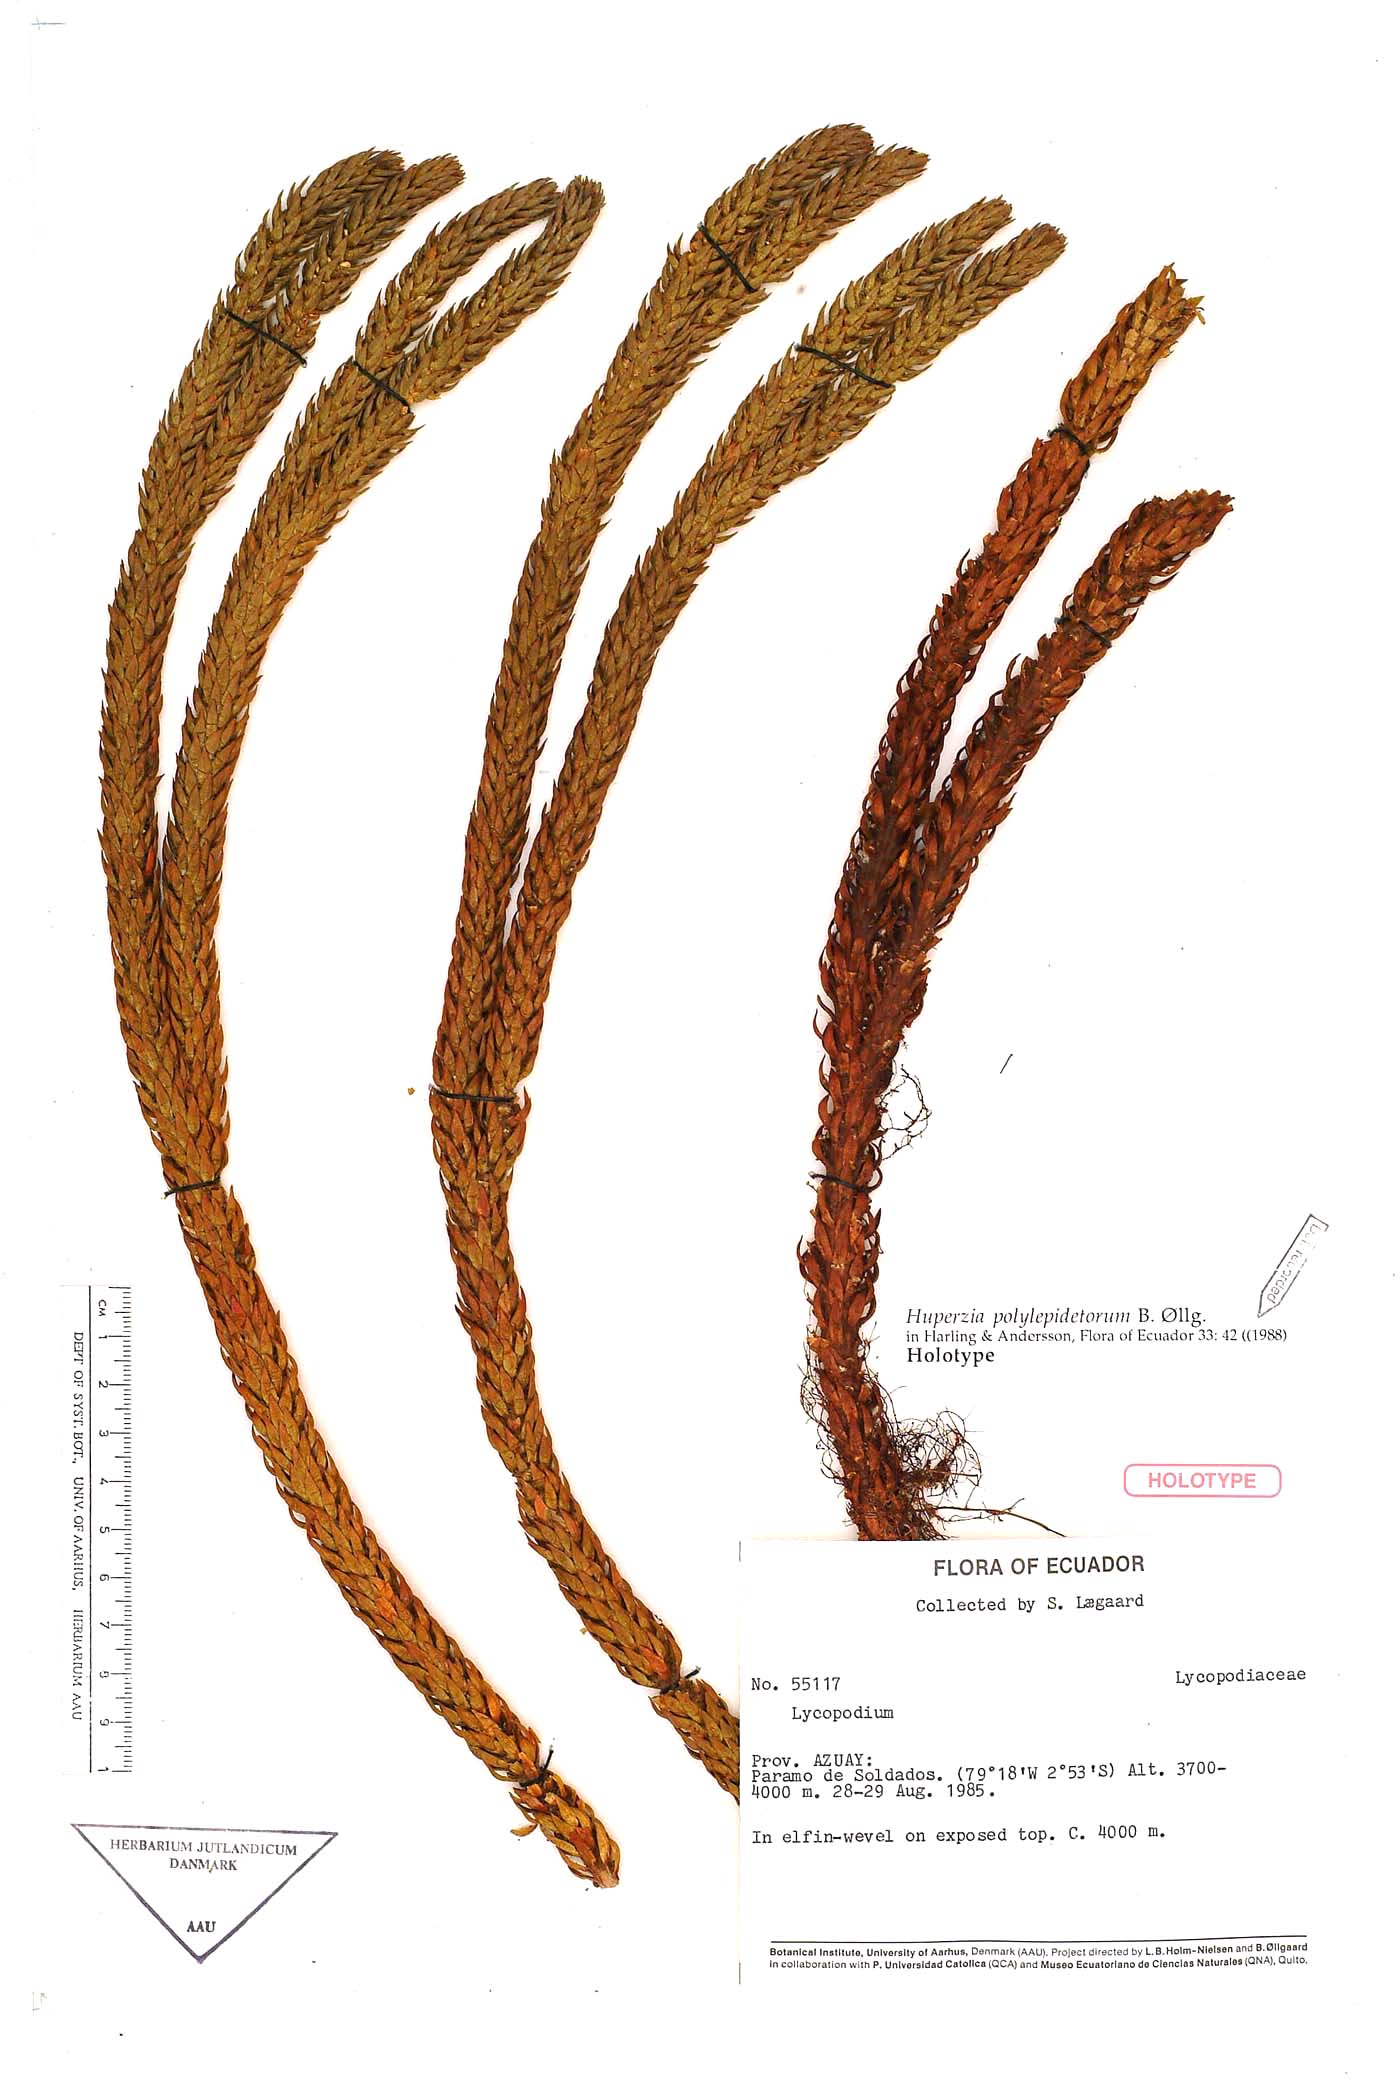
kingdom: Plantae
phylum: Tracheophyta
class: Lycopodiopsida
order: Lycopodiales
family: Lycopodiaceae
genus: Phlegmariurus
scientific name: Phlegmariurus polylepidetorum
